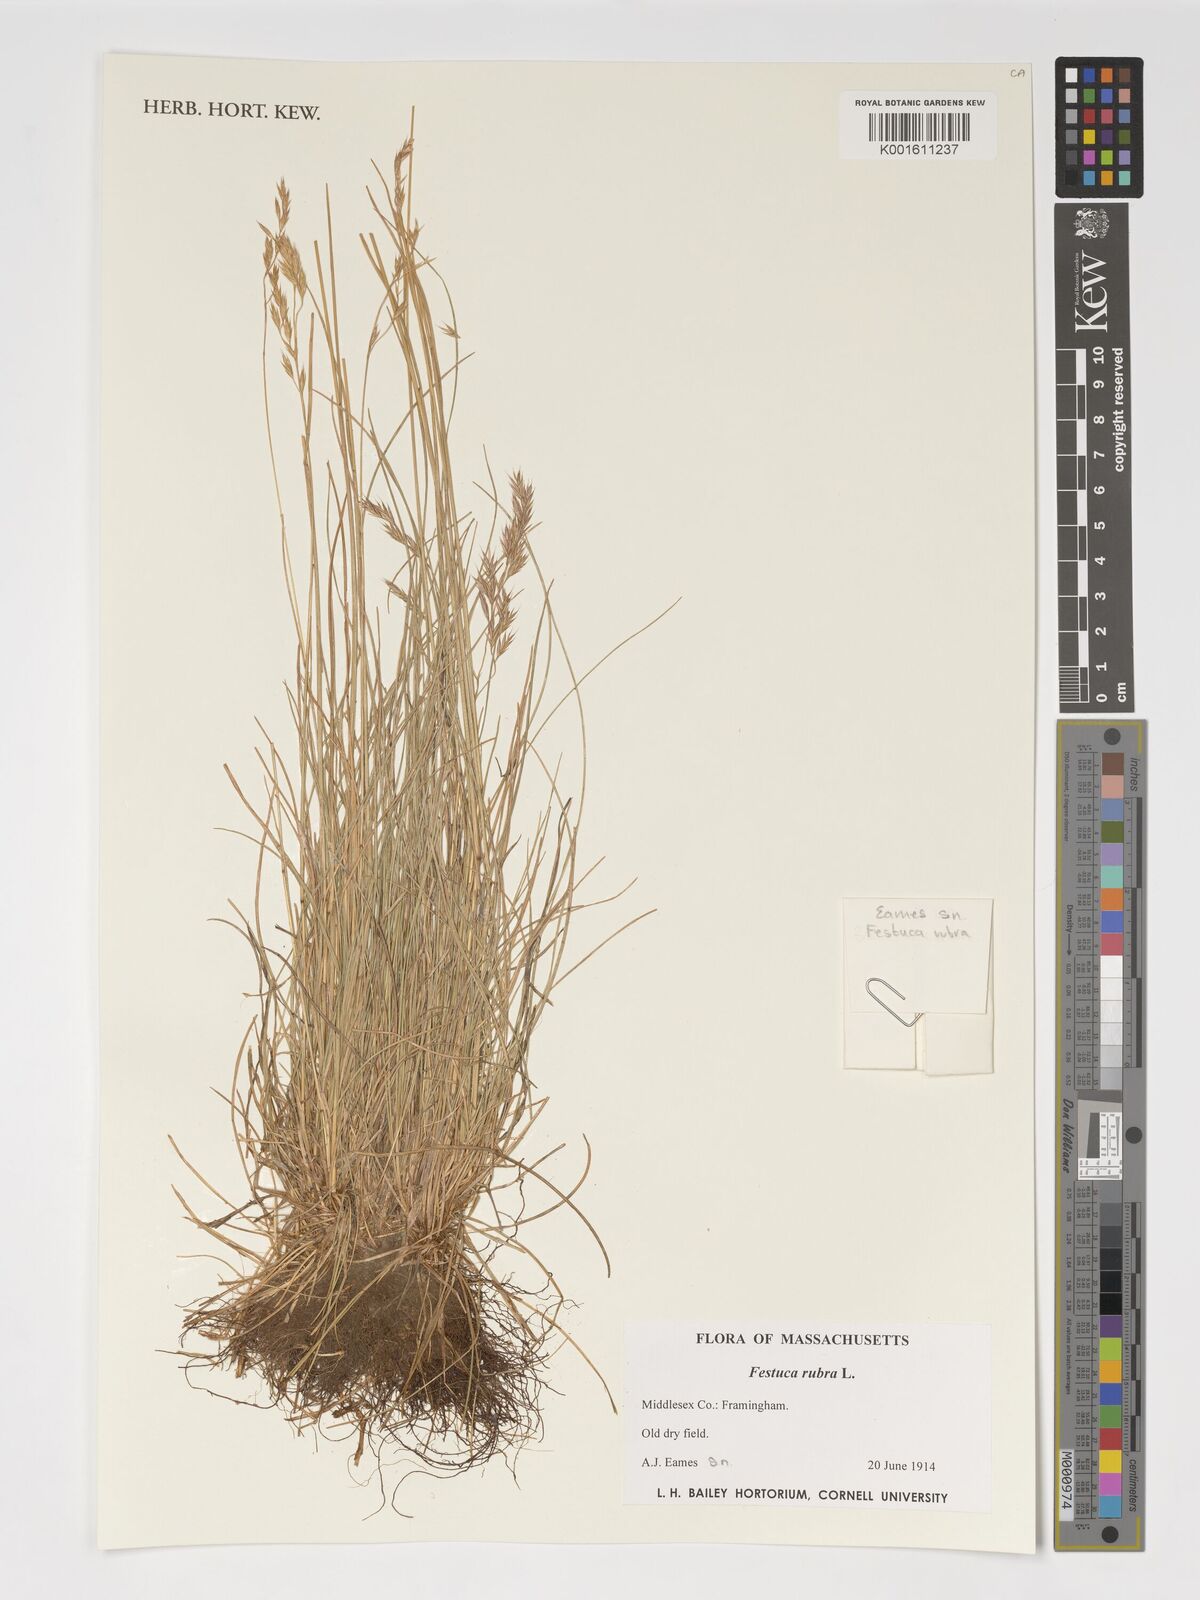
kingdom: Plantae
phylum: Tracheophyta
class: Liliopsida
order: Poales
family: Poaceae
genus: Festuca
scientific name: Festuca rubra
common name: Red fescue
